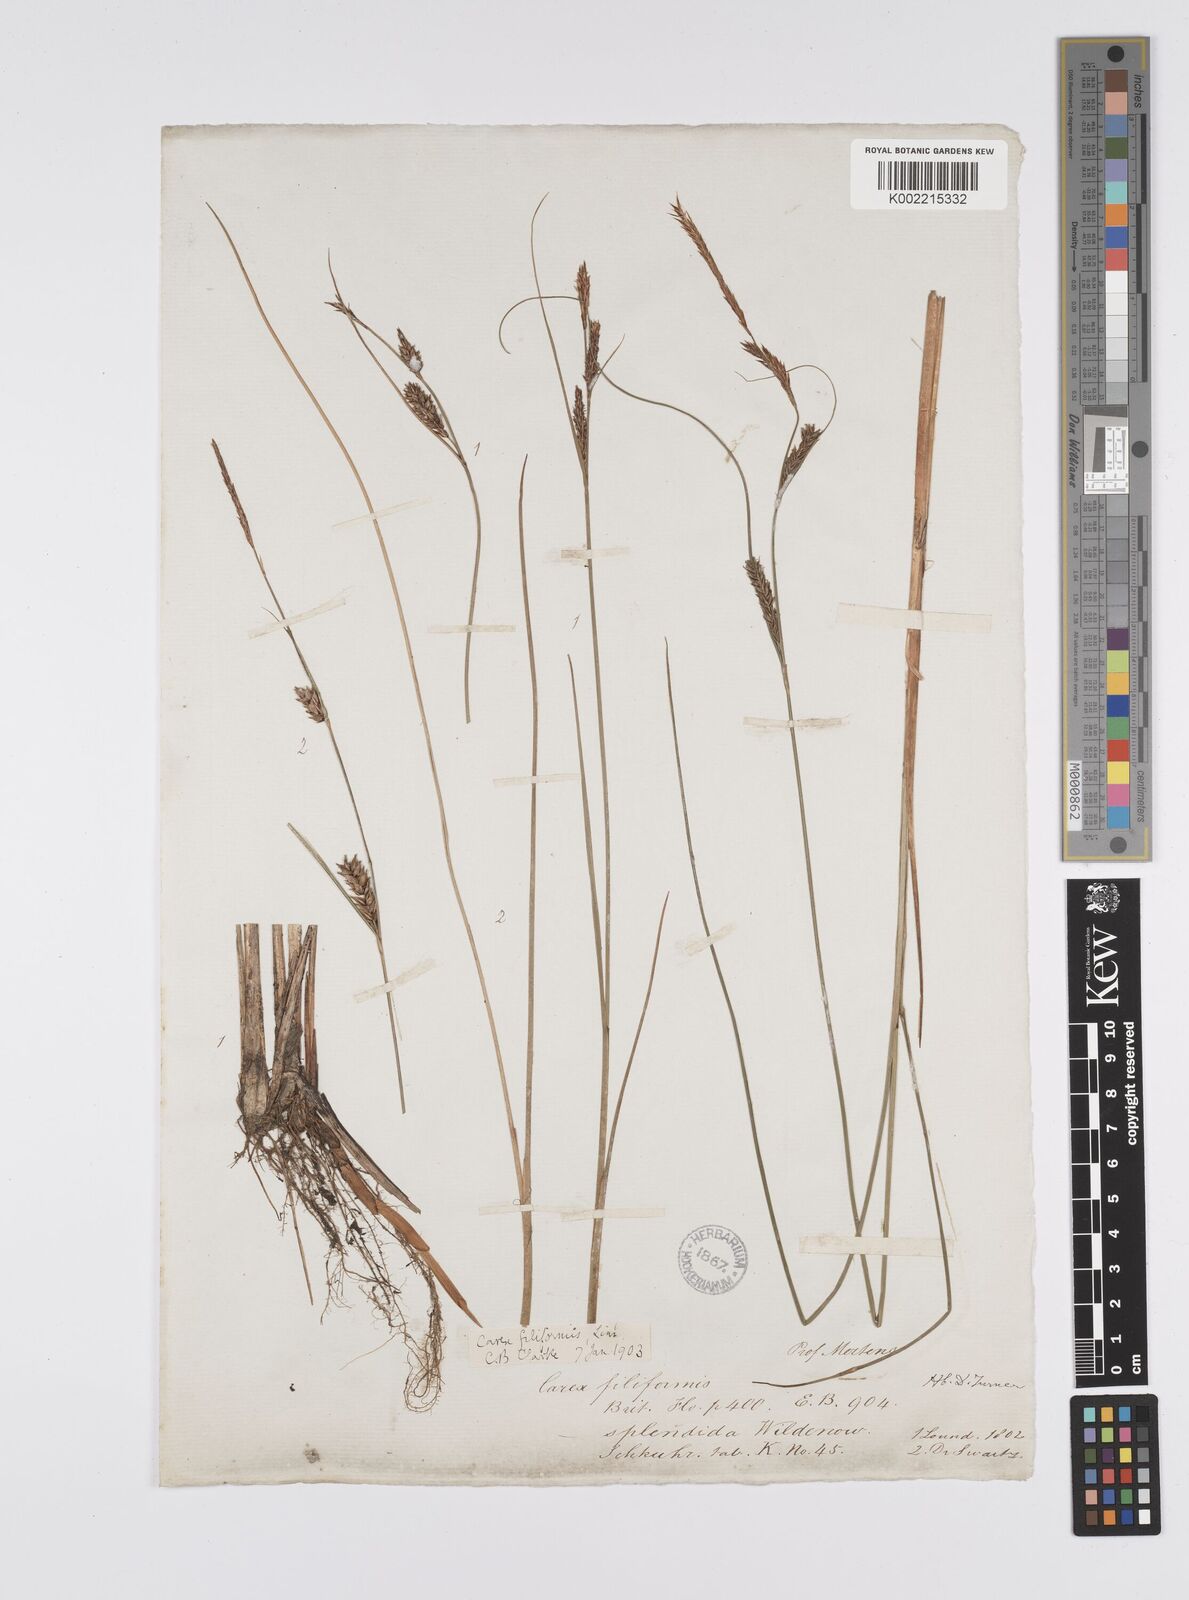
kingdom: Plantae
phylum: Tracheophyta
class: Liliopsida
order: Poales
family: Cyperaceae
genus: Carex
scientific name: Carex lasiocarpa
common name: Slender sedge
